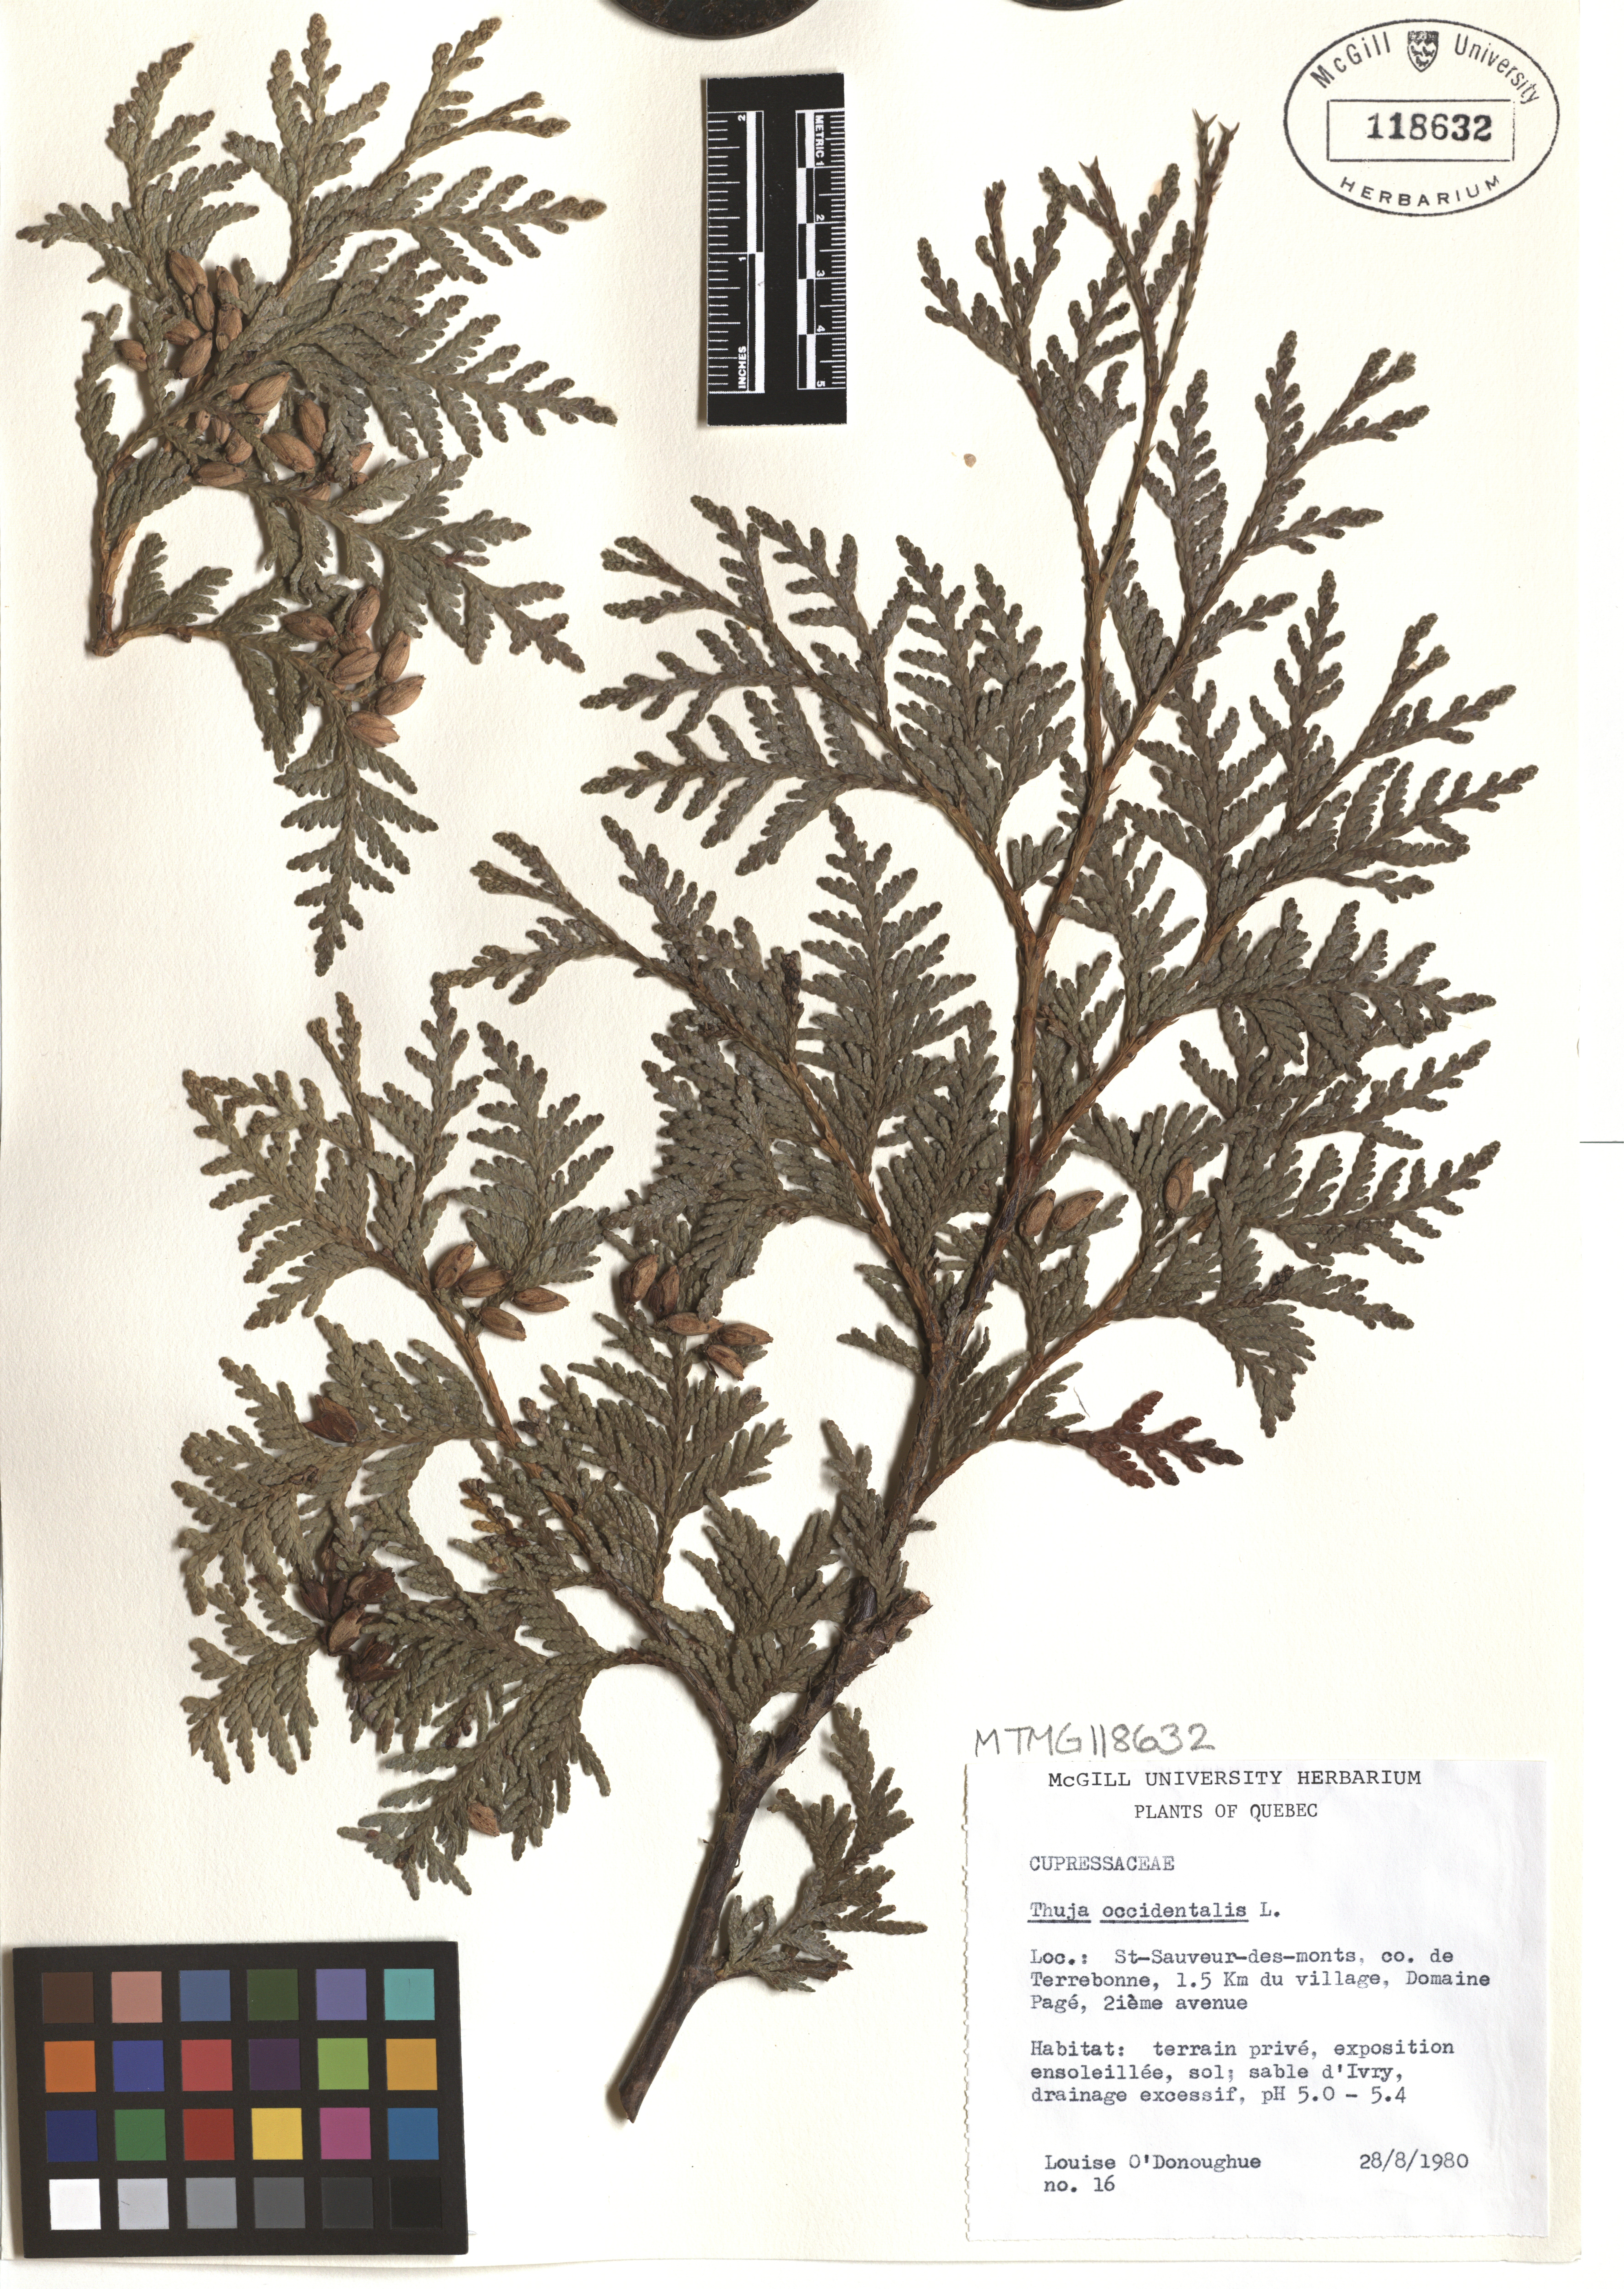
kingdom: Plantae
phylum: Tracheophyta
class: Pinopsida
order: Pinales
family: Cupressaceae
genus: Thuja
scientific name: Thuja occidentalis
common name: Northern white-cedar
